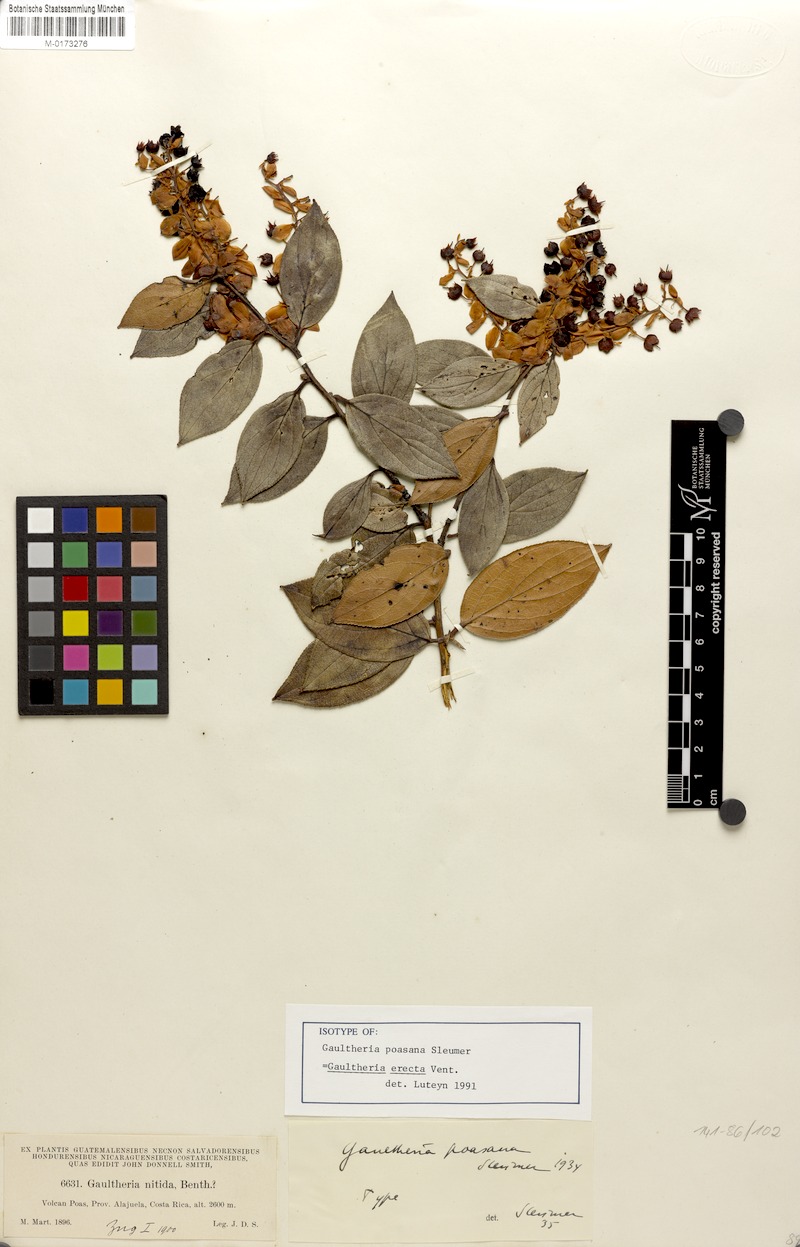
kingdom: Plantae
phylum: Tracheophyta
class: Magnoliopsida
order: Ericales
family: Ericaceae
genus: Gaultheria
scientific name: Gaultheria erecta
